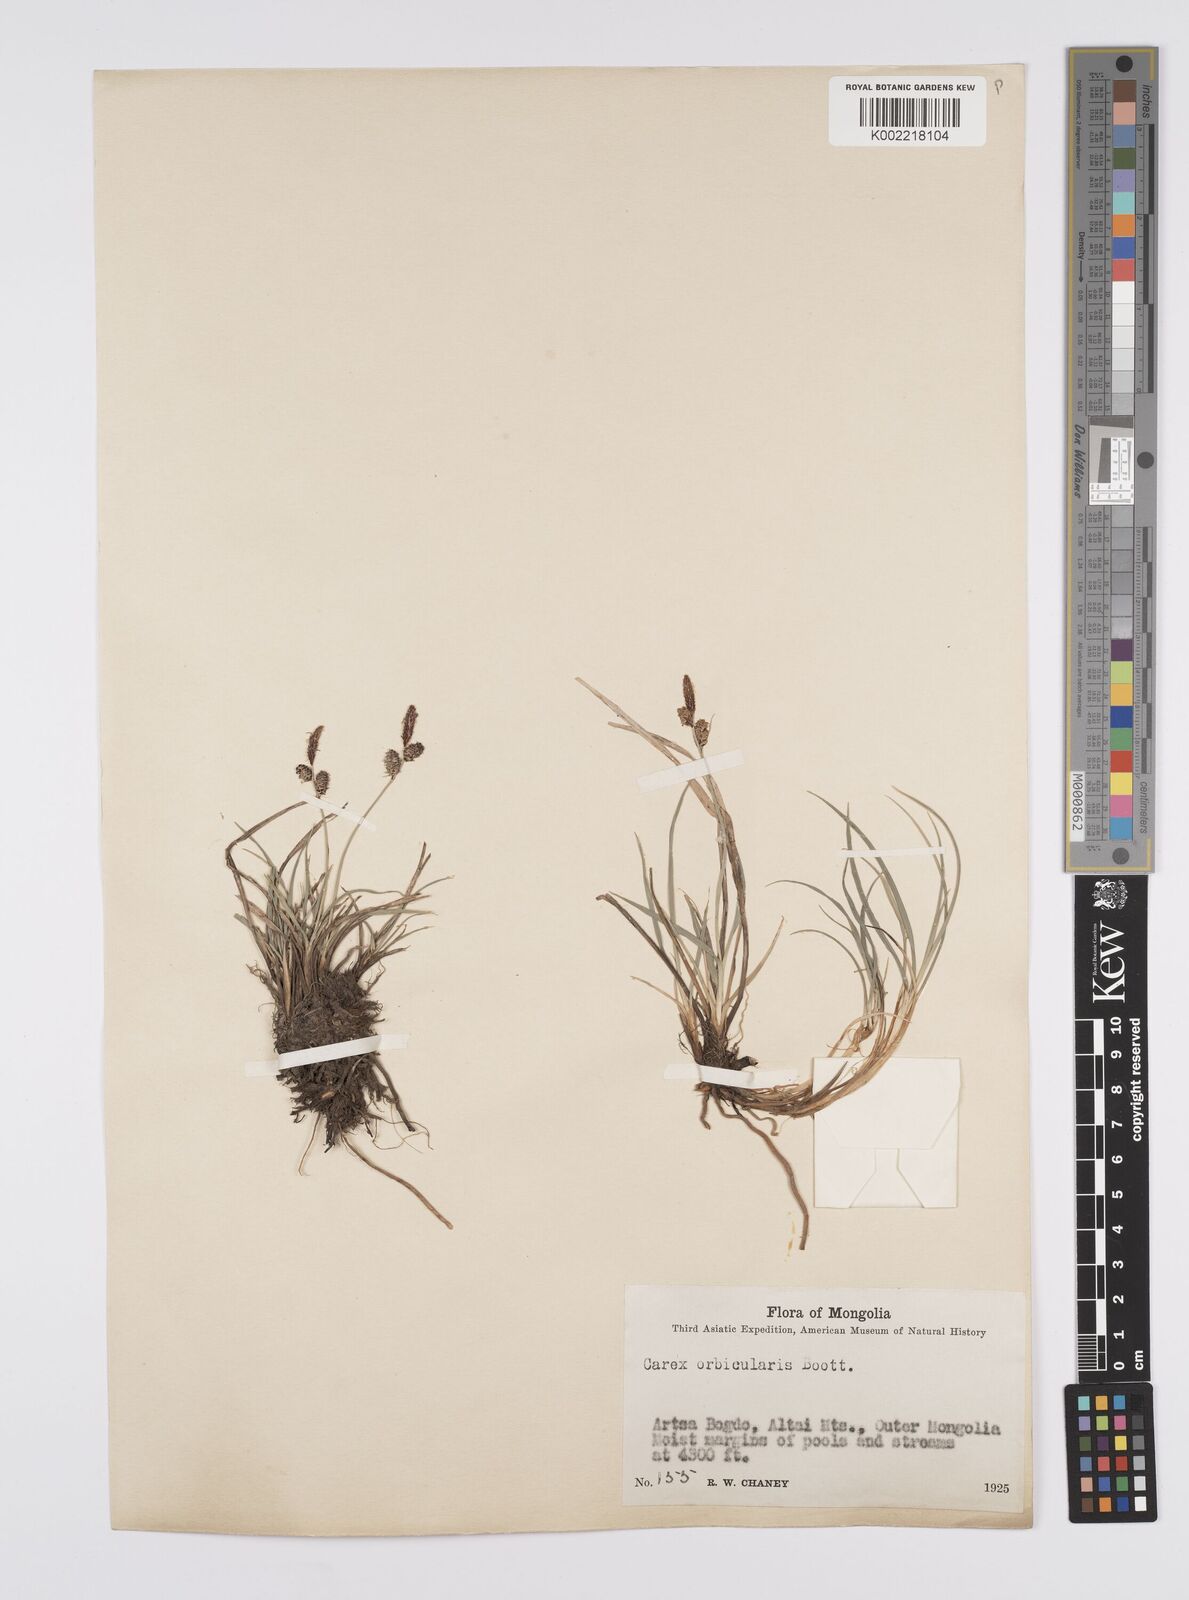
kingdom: Plantae
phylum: Tracheophyta
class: Liliopsida
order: Poales
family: Cyperaceae
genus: Carex
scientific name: Carex orbicularis
